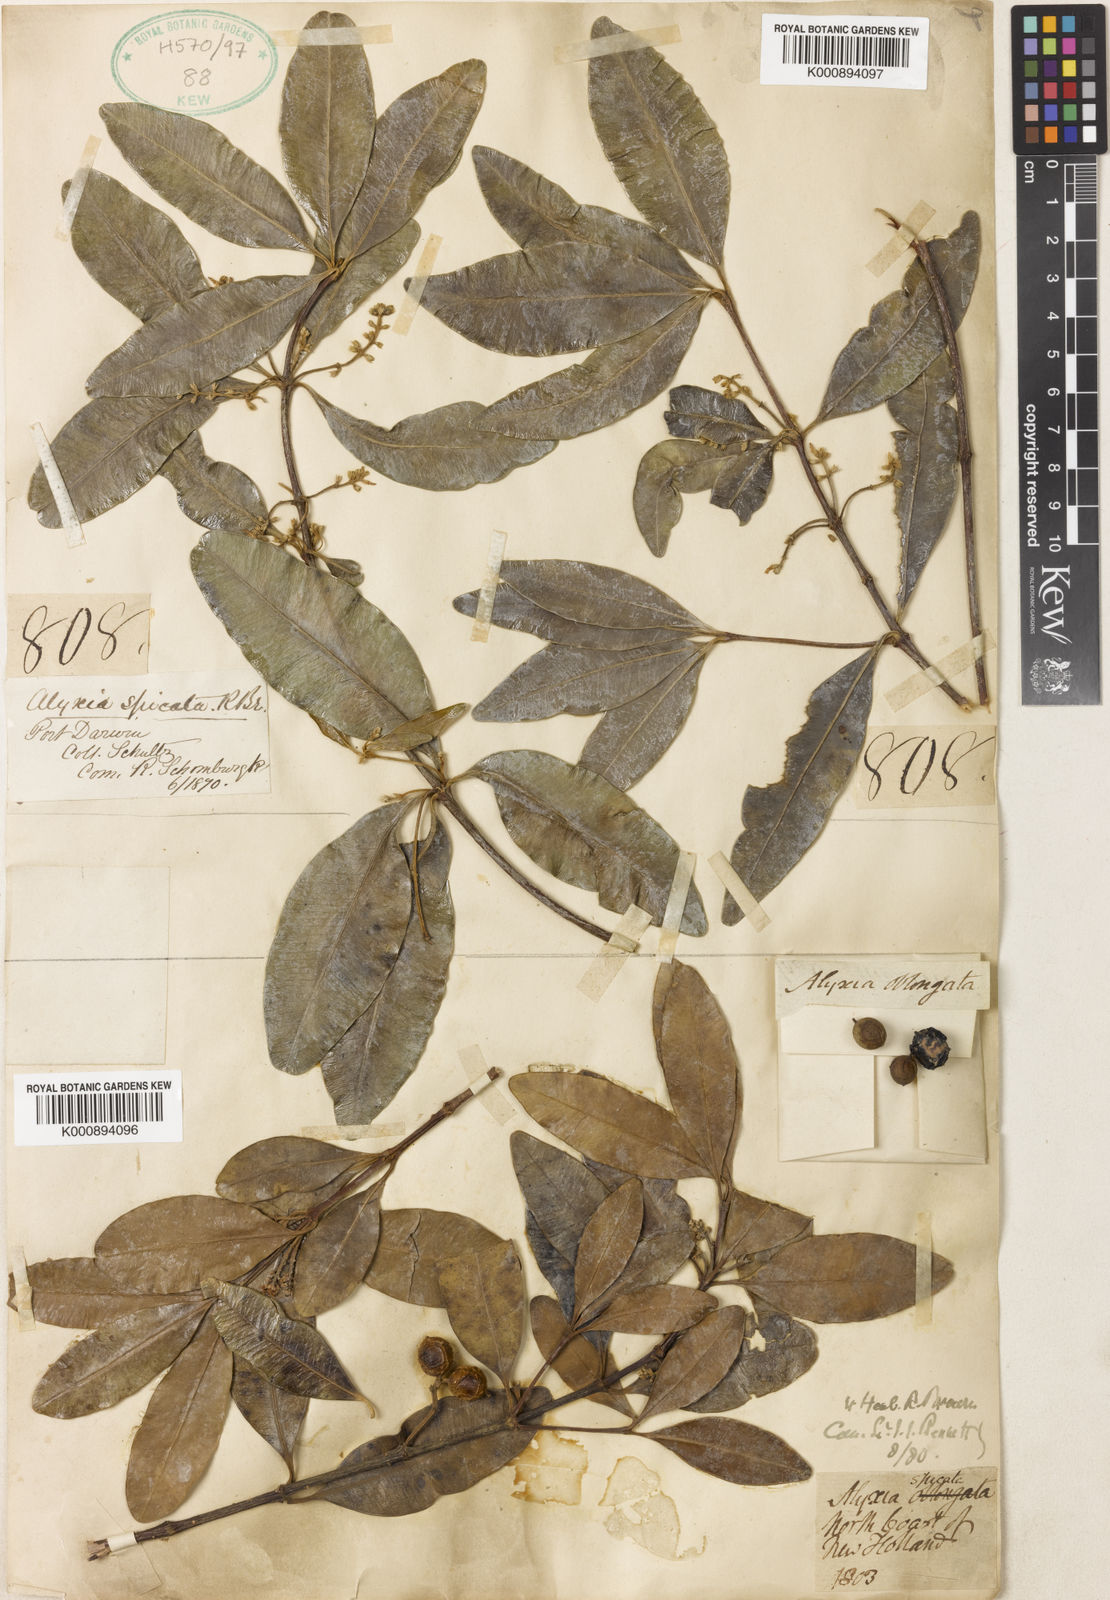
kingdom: Plantae
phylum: Tracheophyta
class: Magnoliopsida
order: Gentianales
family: Apocynaceae
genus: Alyxia
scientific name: Alyxia spicata
